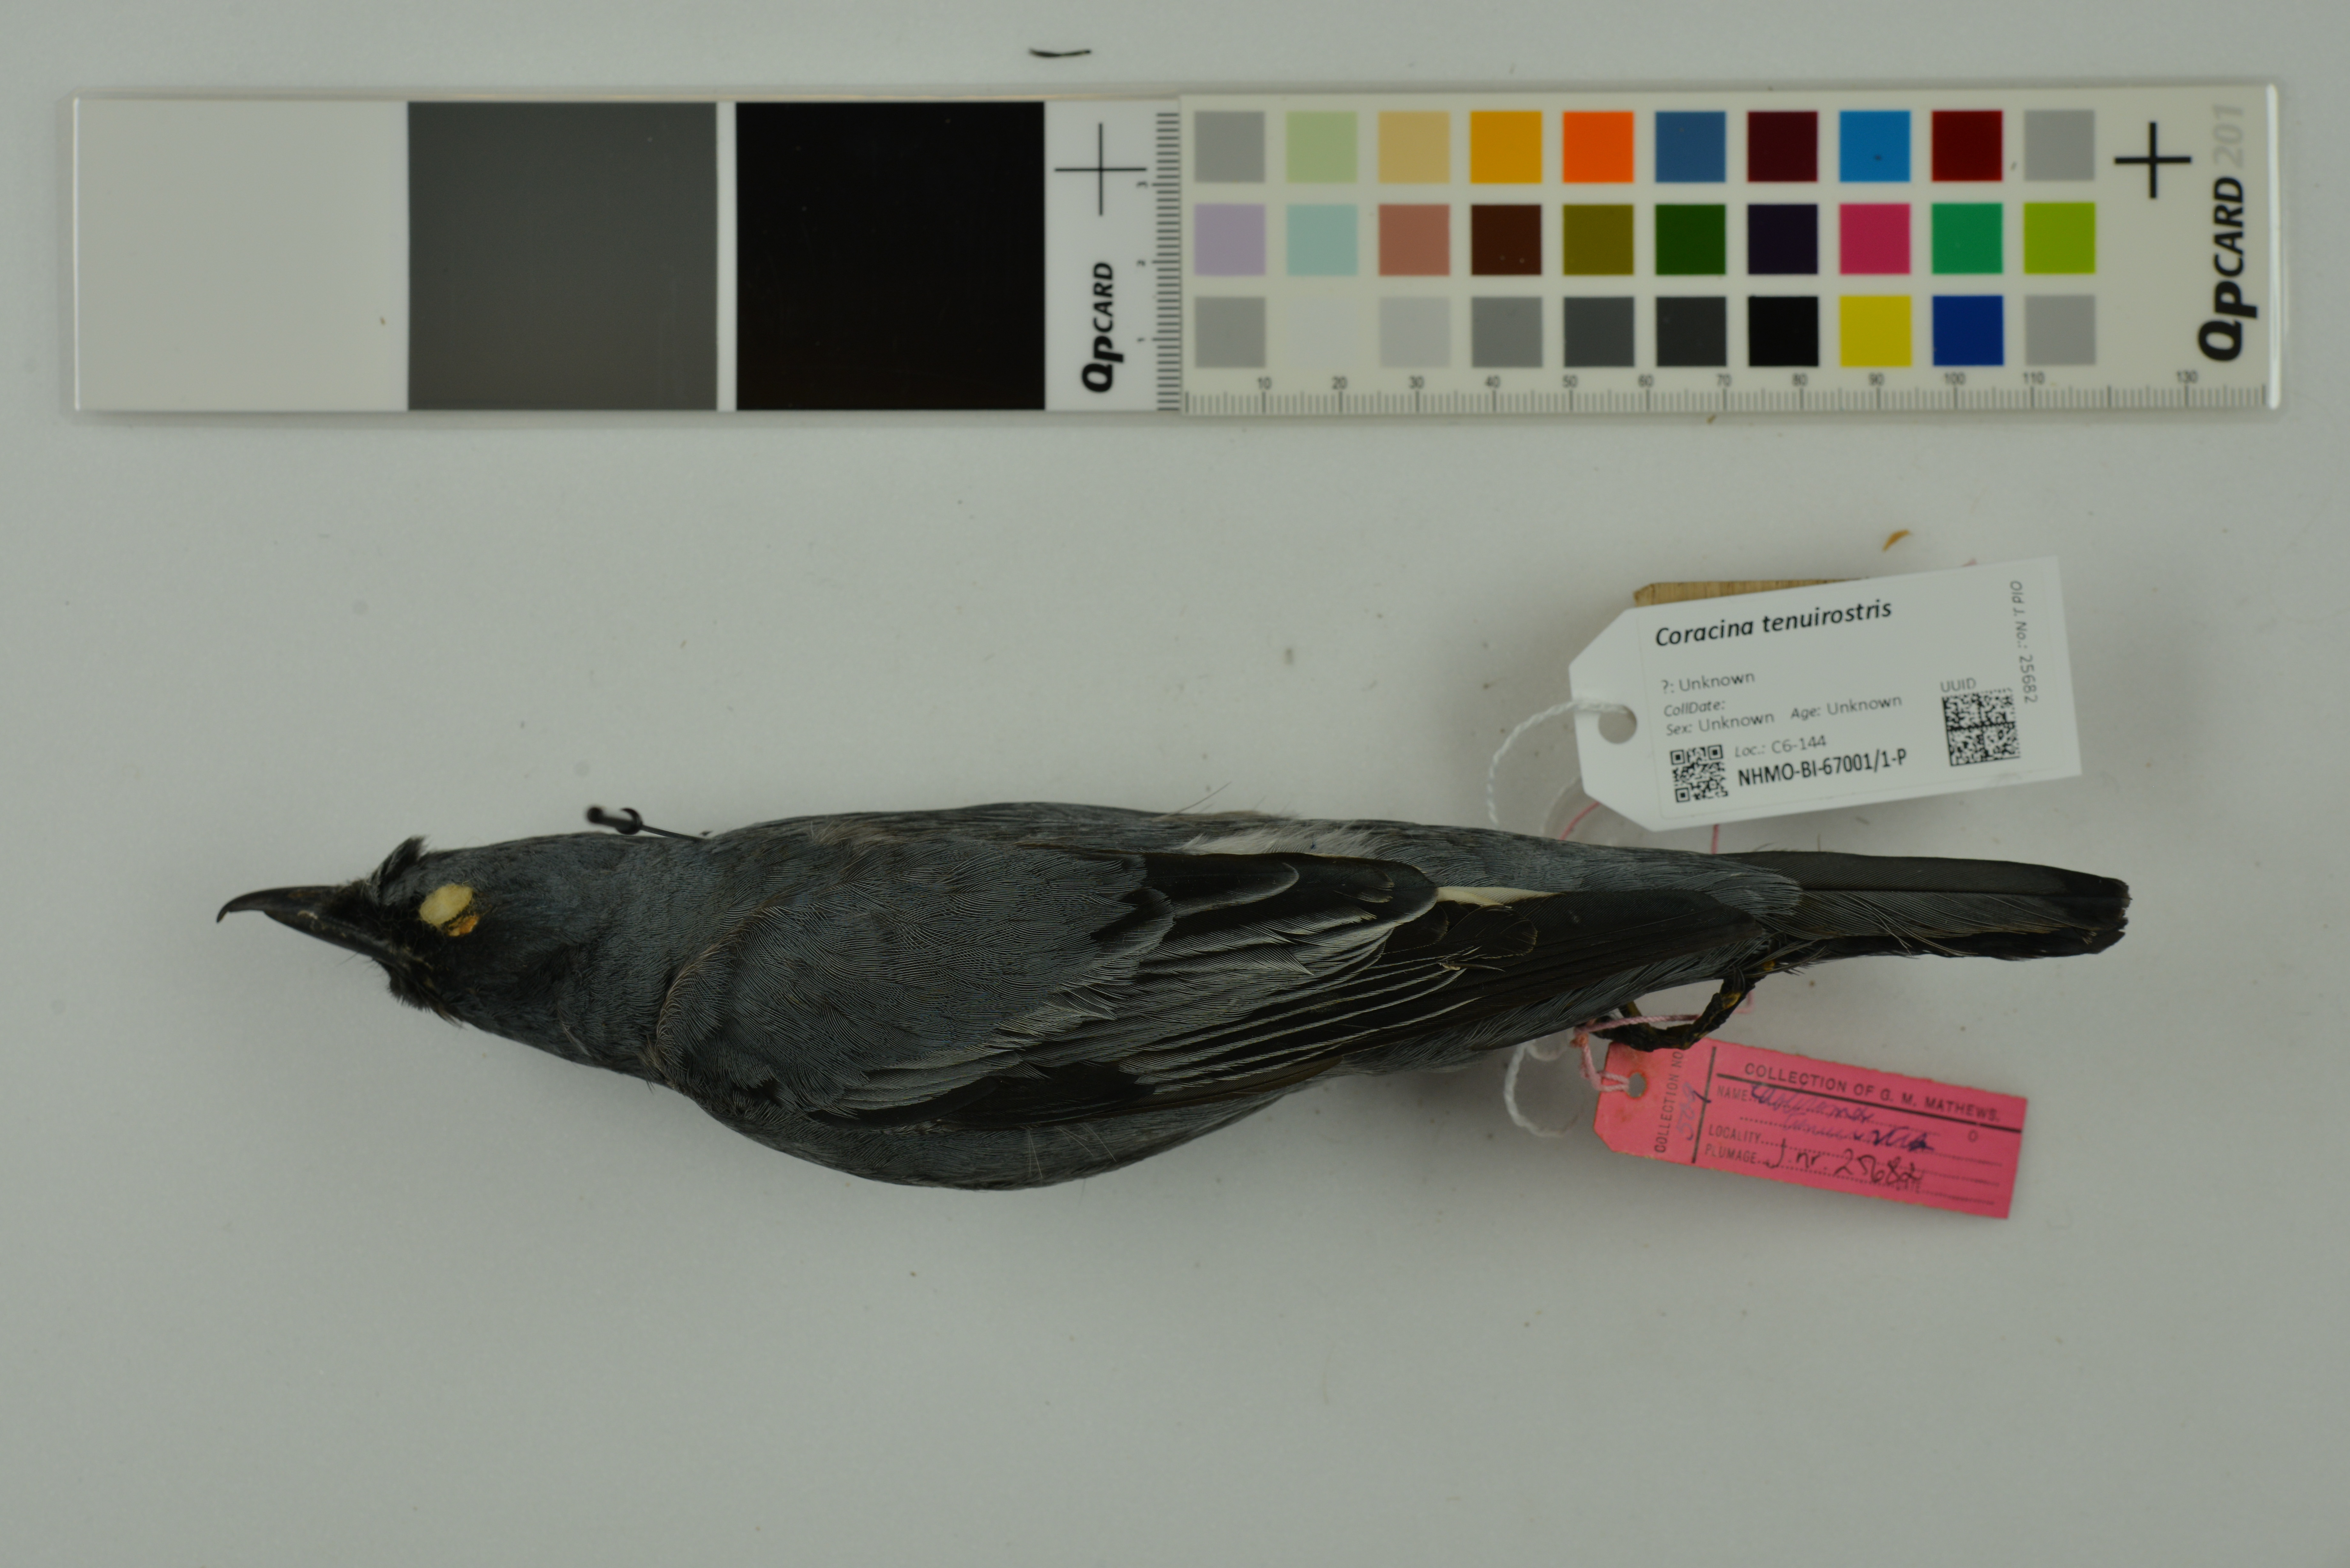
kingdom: Animalia
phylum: Chordata
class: Aves
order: Passeriformes
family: Campephagidae
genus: Edolisoma
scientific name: Edolisoma tenuirostre
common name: Common cicadabird
